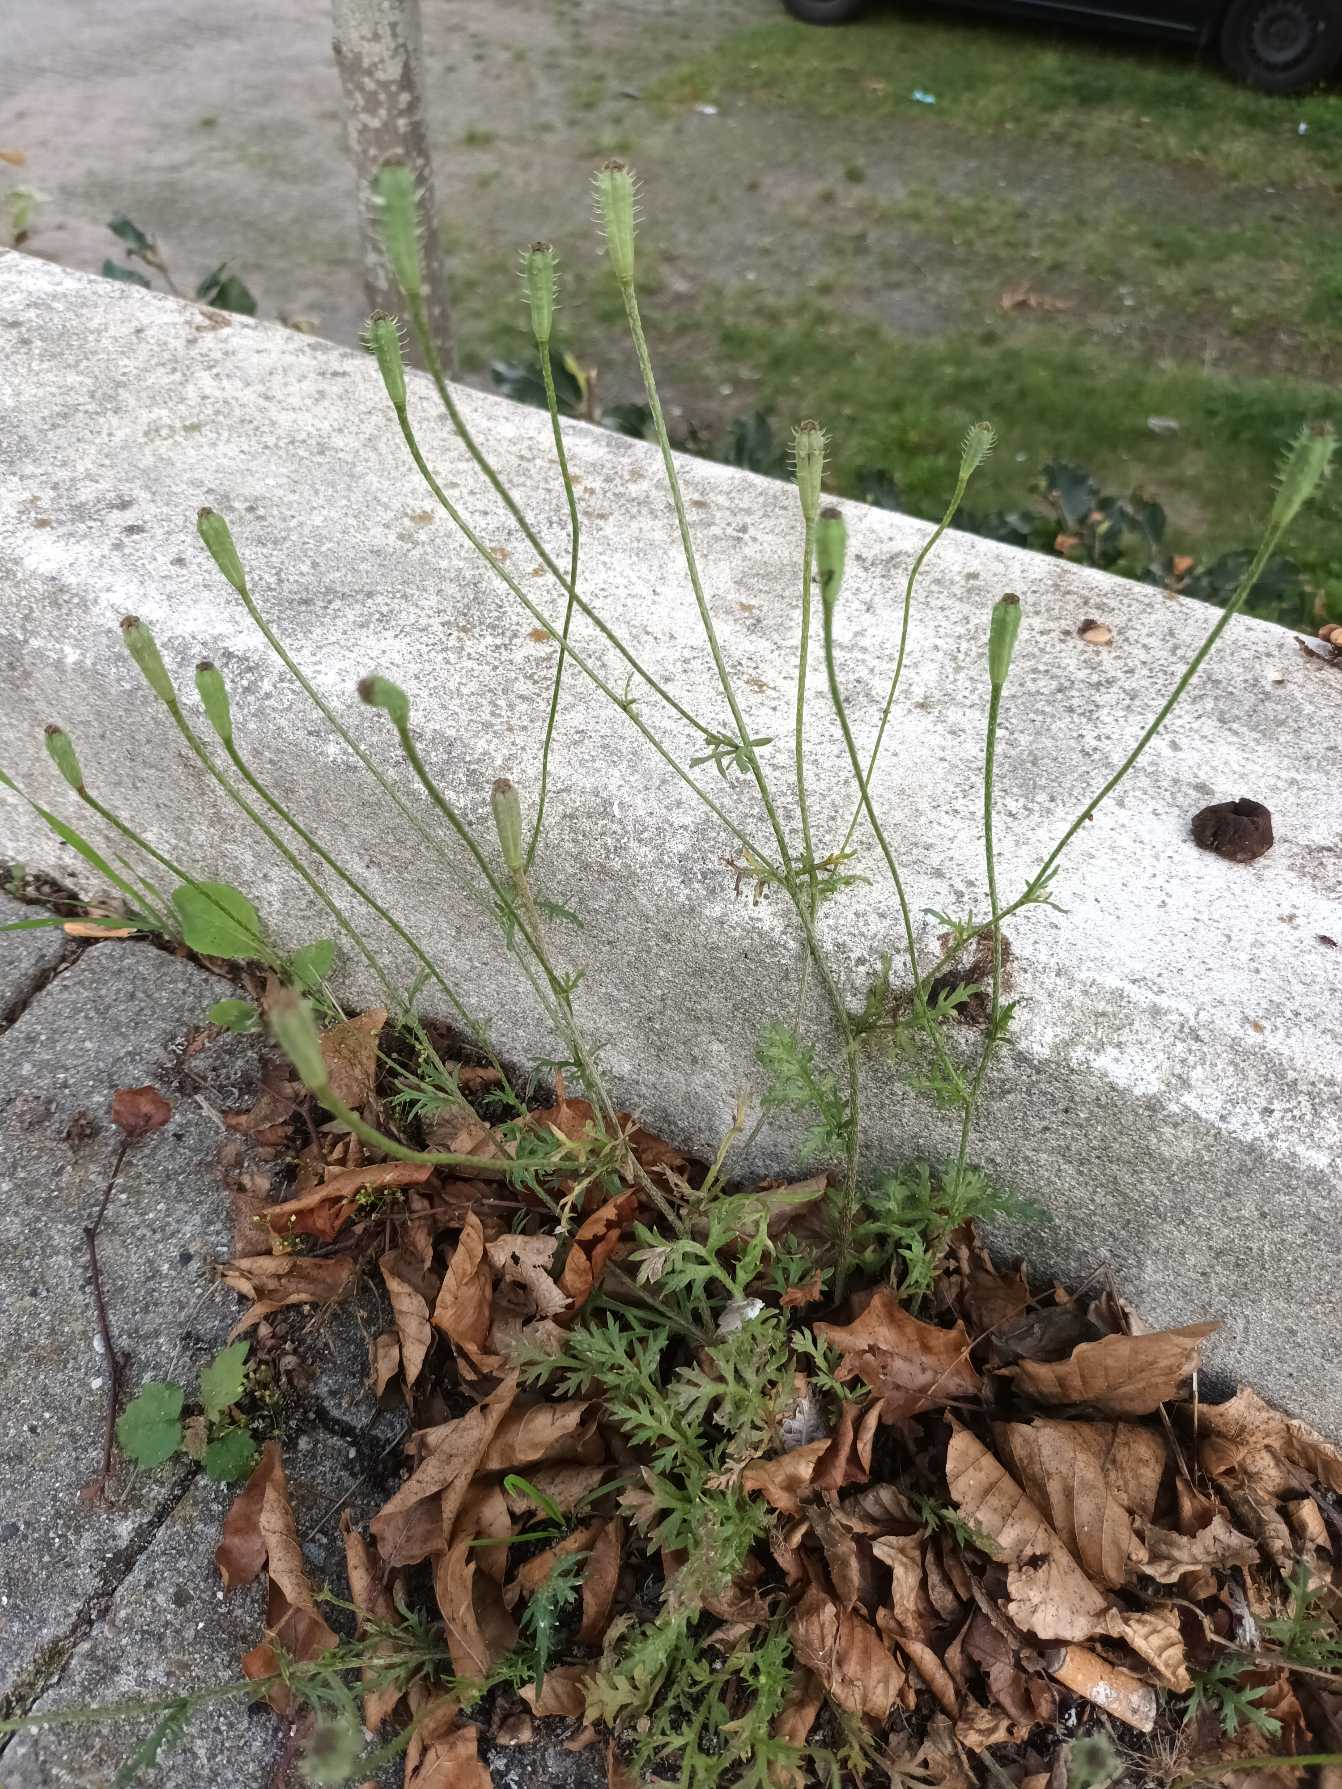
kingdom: Plantae
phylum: Tracheophyta
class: Magnoliopsida
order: Ranunculales
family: Papaveraceae
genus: Roemeria
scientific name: Roemeria argemone
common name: Kølle-valmue
